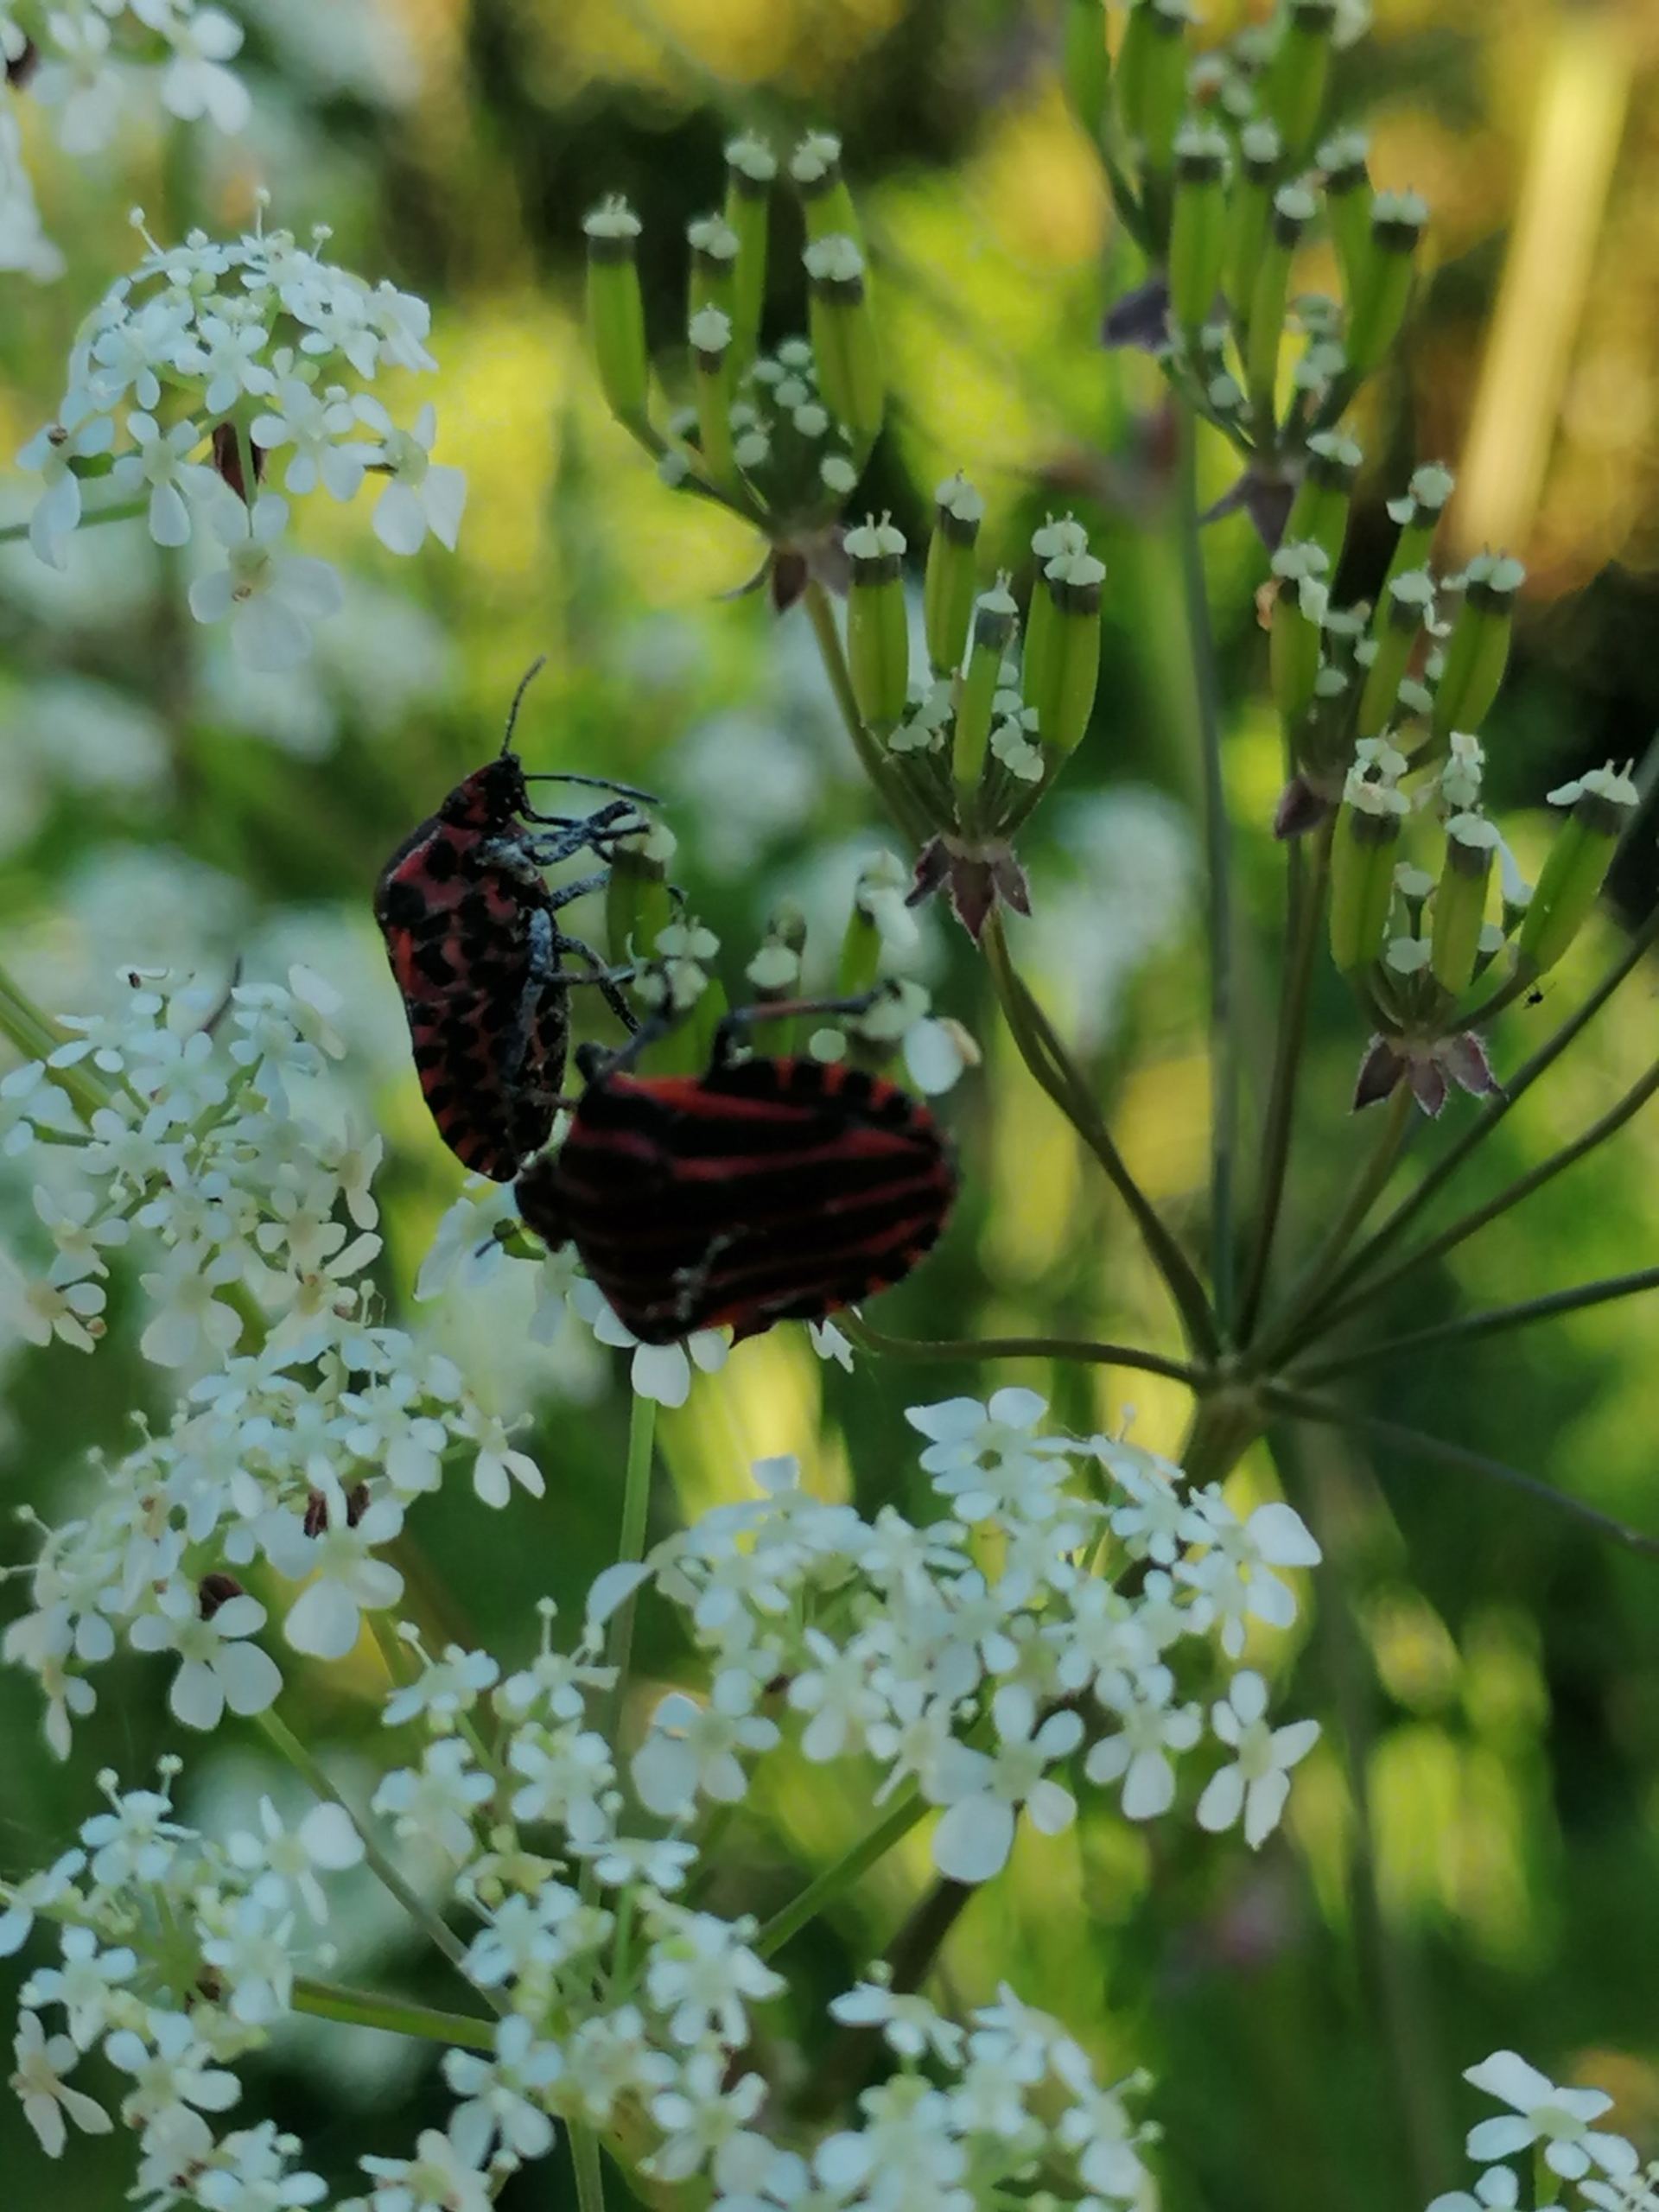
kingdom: Animalia
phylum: Arthropoda
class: Insecta
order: Hemiptera
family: Pentatomidae
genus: Graphosoma
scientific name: Graphosoma italicum
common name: Stribetæge
